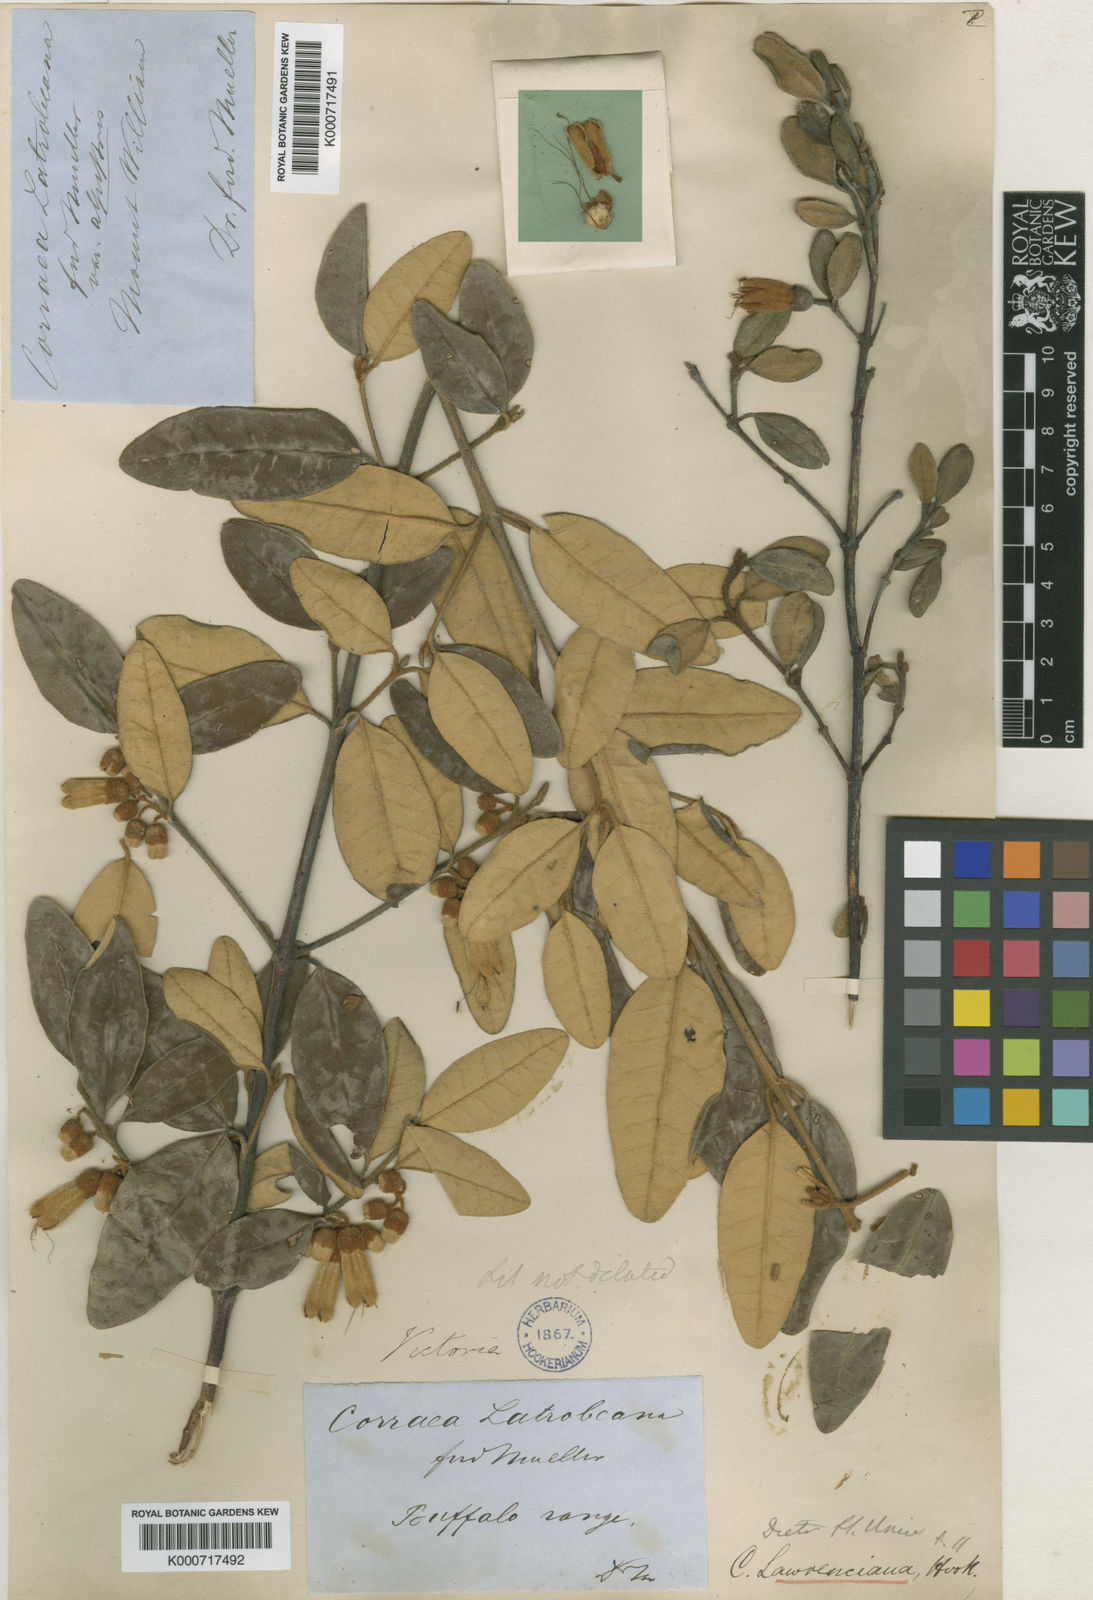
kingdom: Plantae
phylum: Tracheophyta
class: Magnoliopsida
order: Sapindales
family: Rutaceae
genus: Correa
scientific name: Correa
